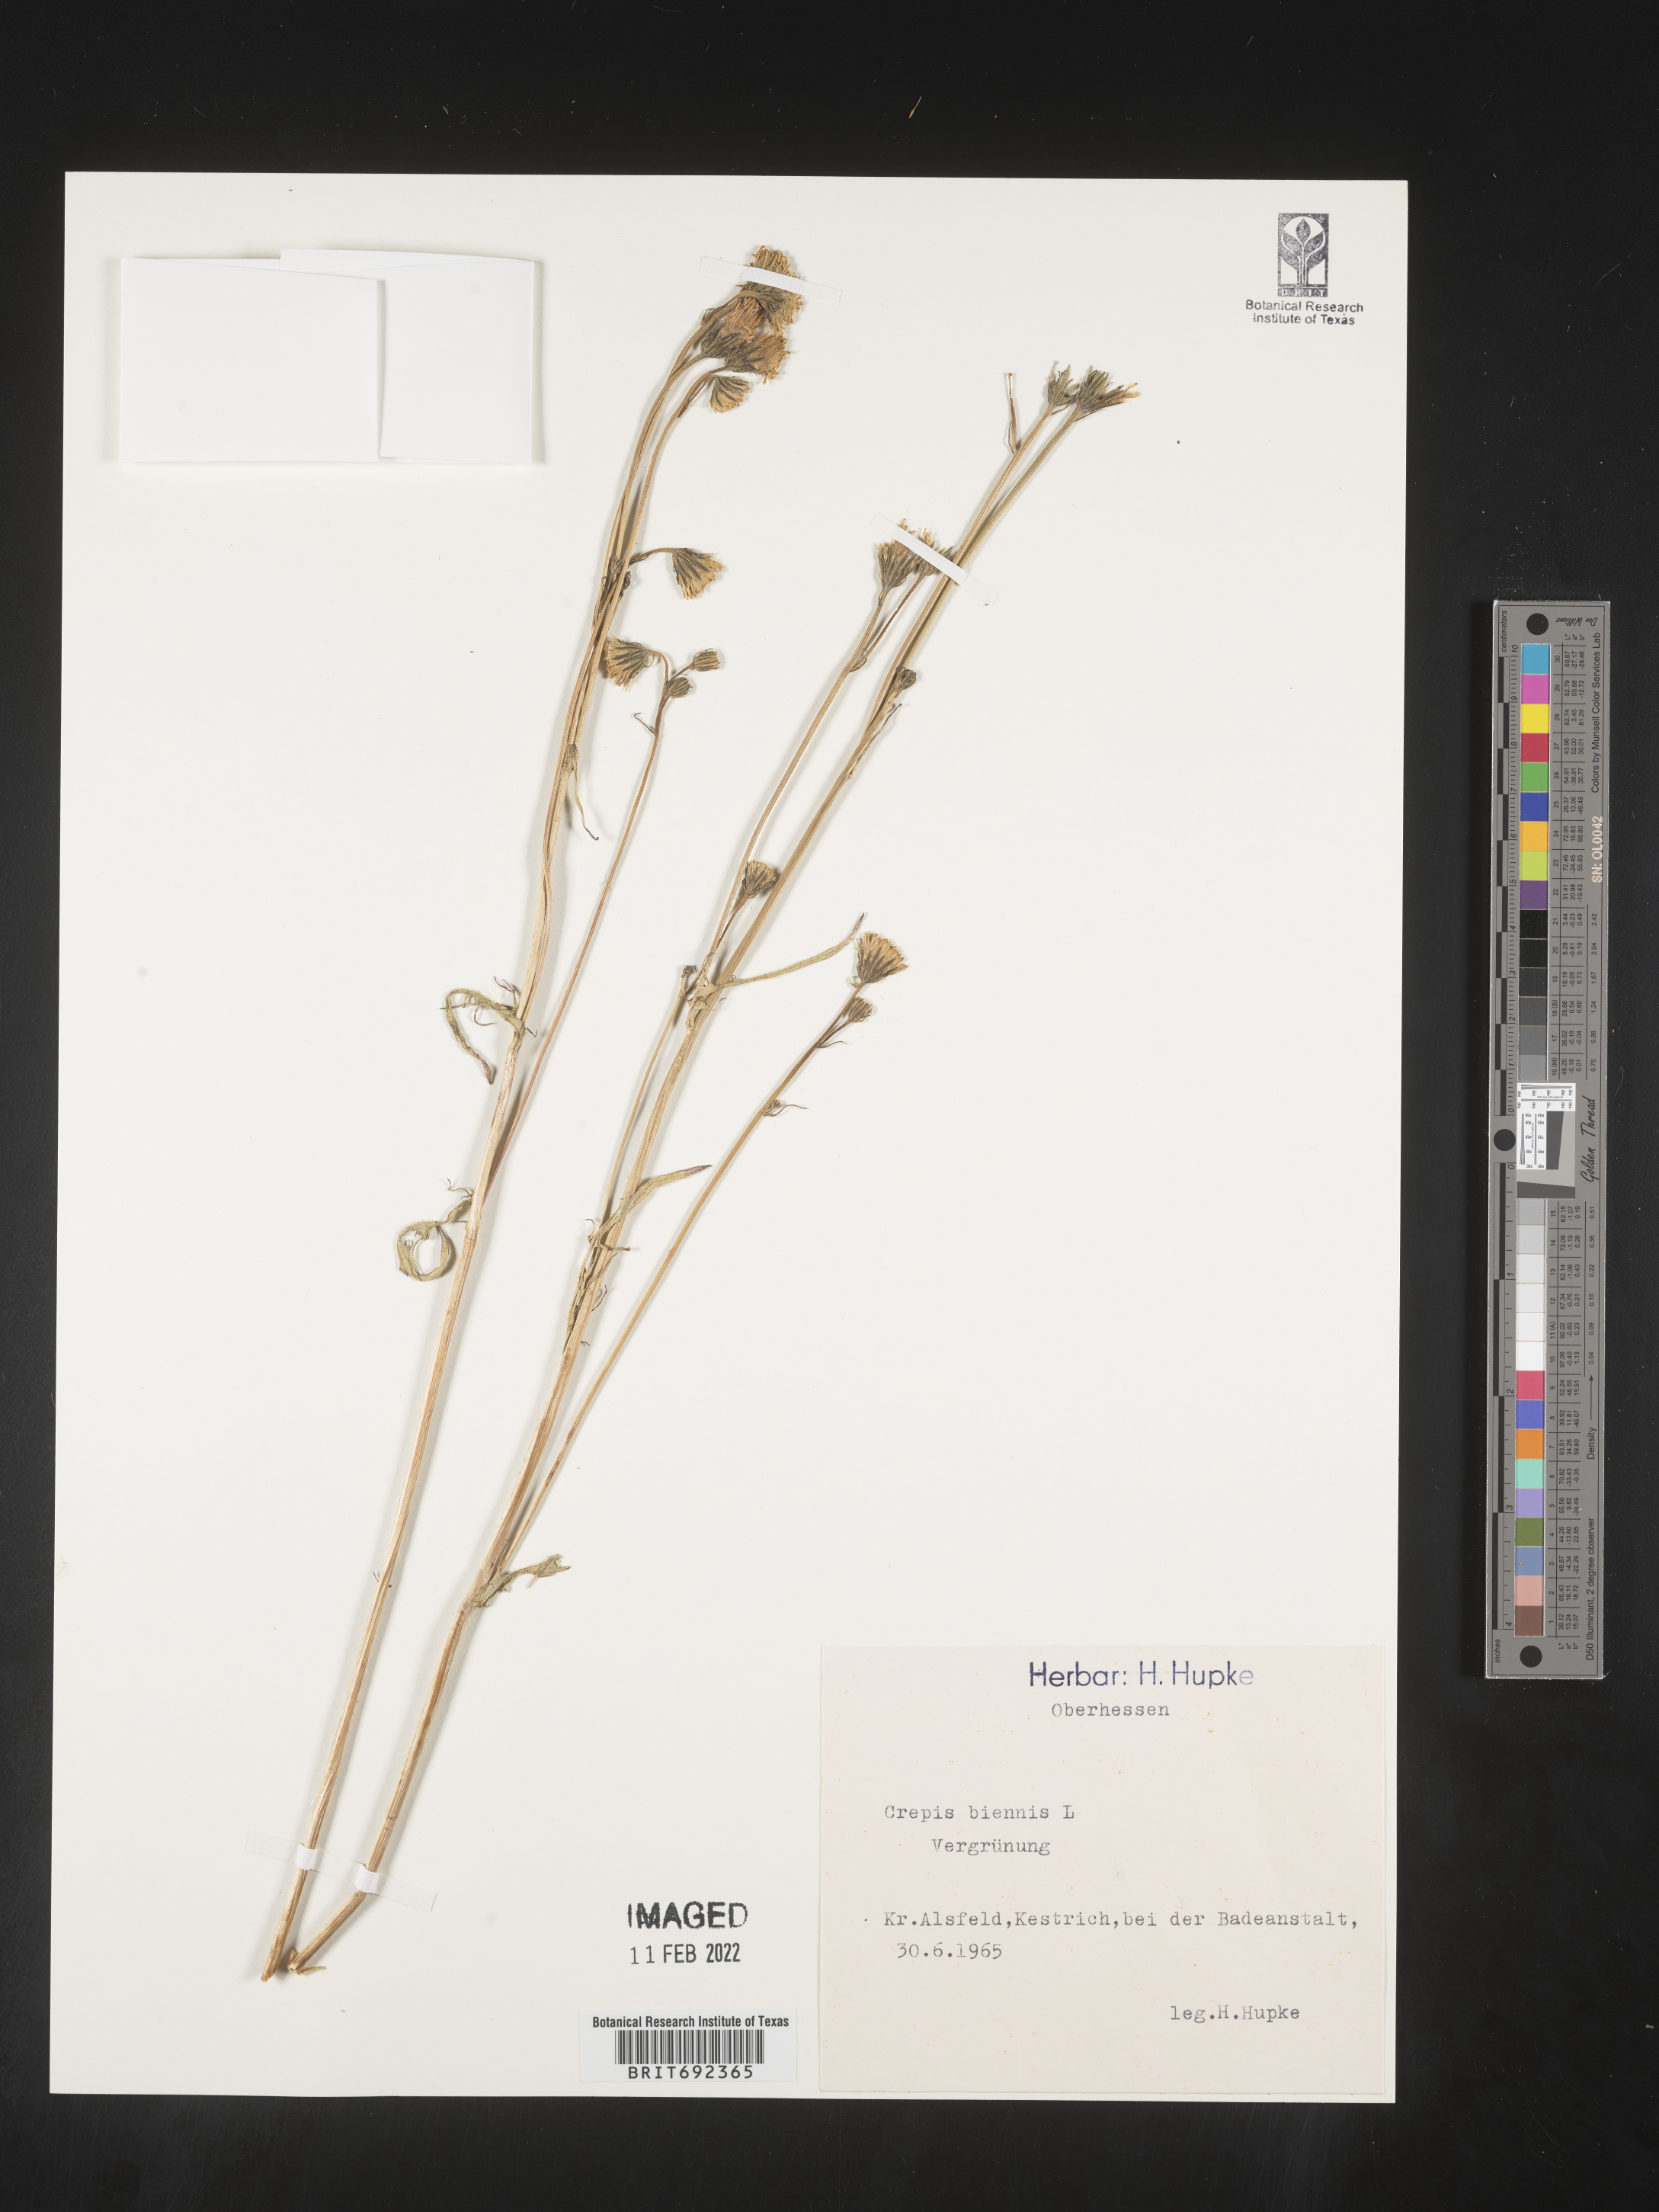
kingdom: Plantae
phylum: Tracheophyta
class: Magnoliopsida
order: Asterales
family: Asteraceae
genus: Crepis
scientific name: Crepis
